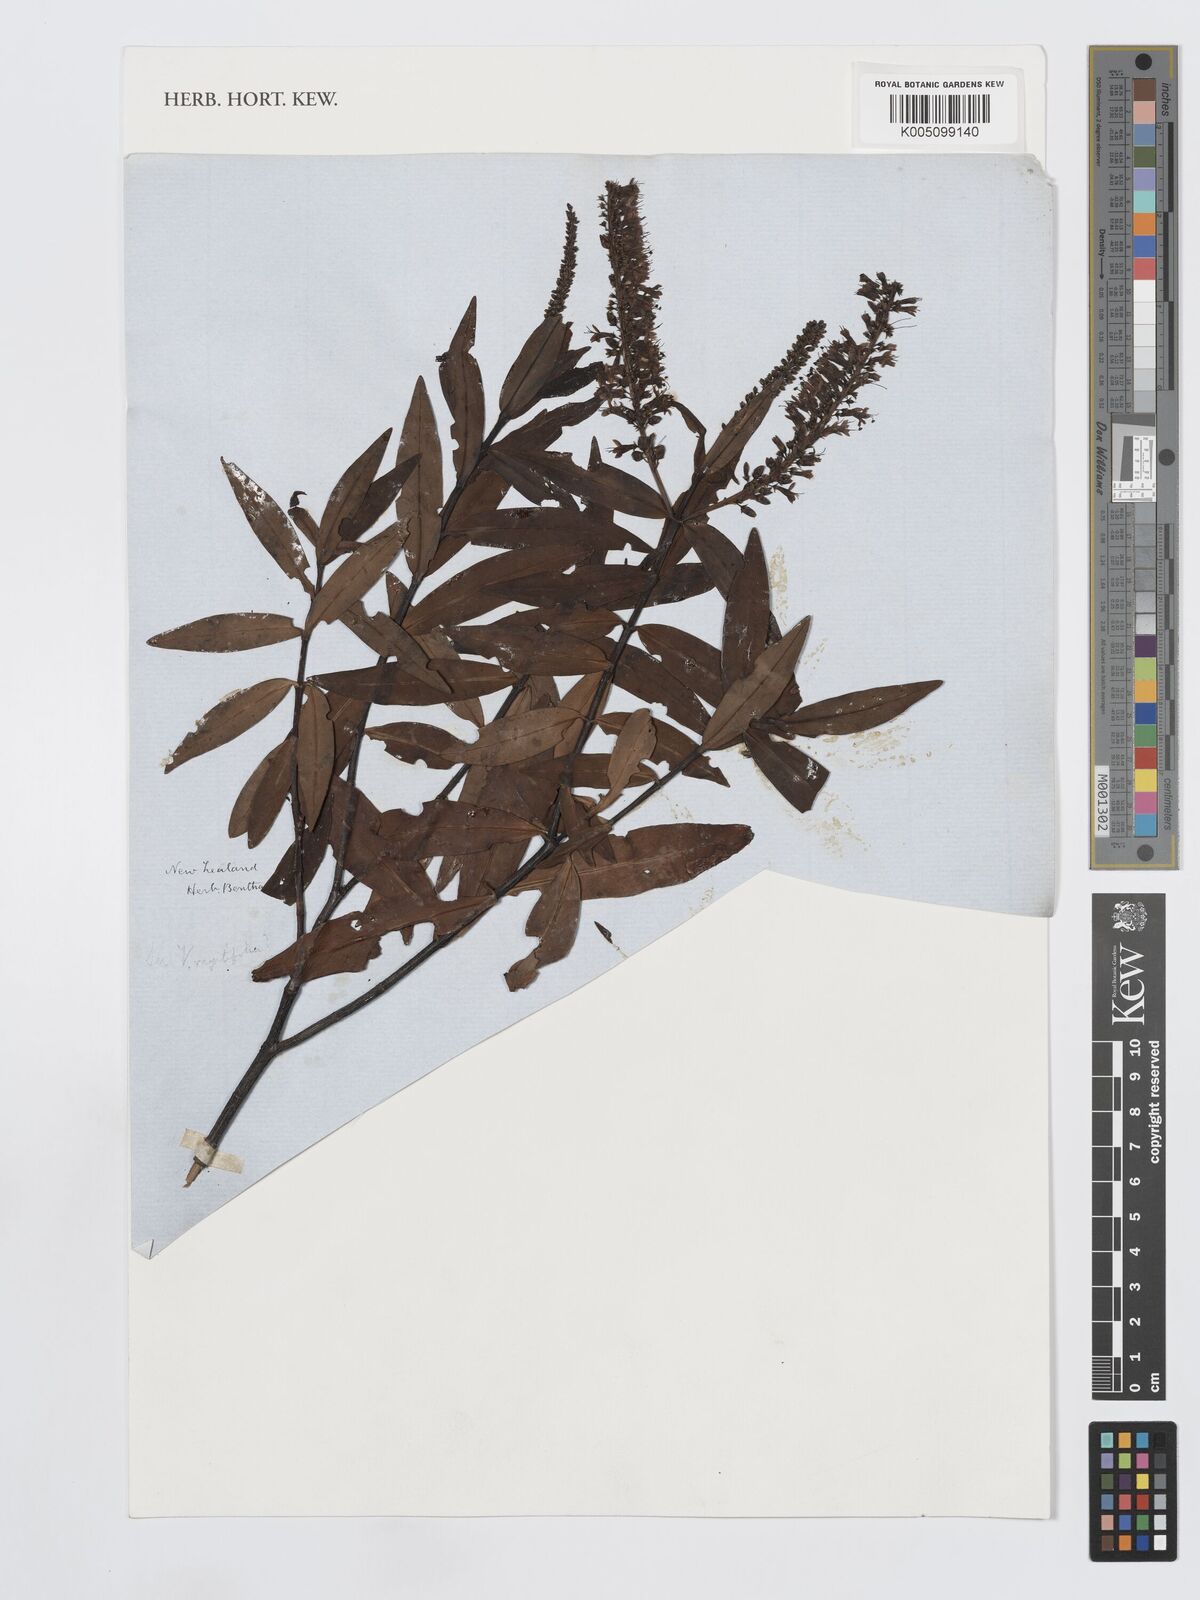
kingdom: Plantae
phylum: Tracheophyta
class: Magnoliopsida
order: Lamiales
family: Plantaginaceae
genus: Veronica
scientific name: Veronica macrocarpa
